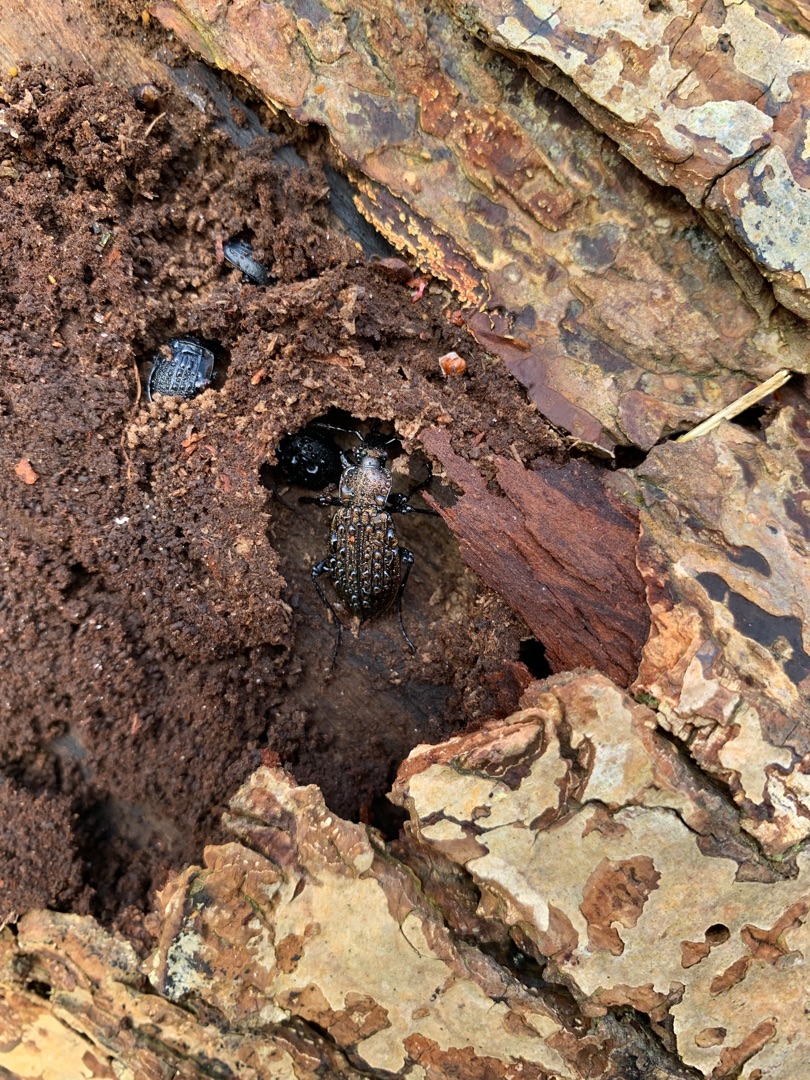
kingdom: Animalia
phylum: Arthropoda
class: Insecta
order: Coleoptera
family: Carabidae
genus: Carabus
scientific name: Carabus granulatus
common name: Kornet løber
